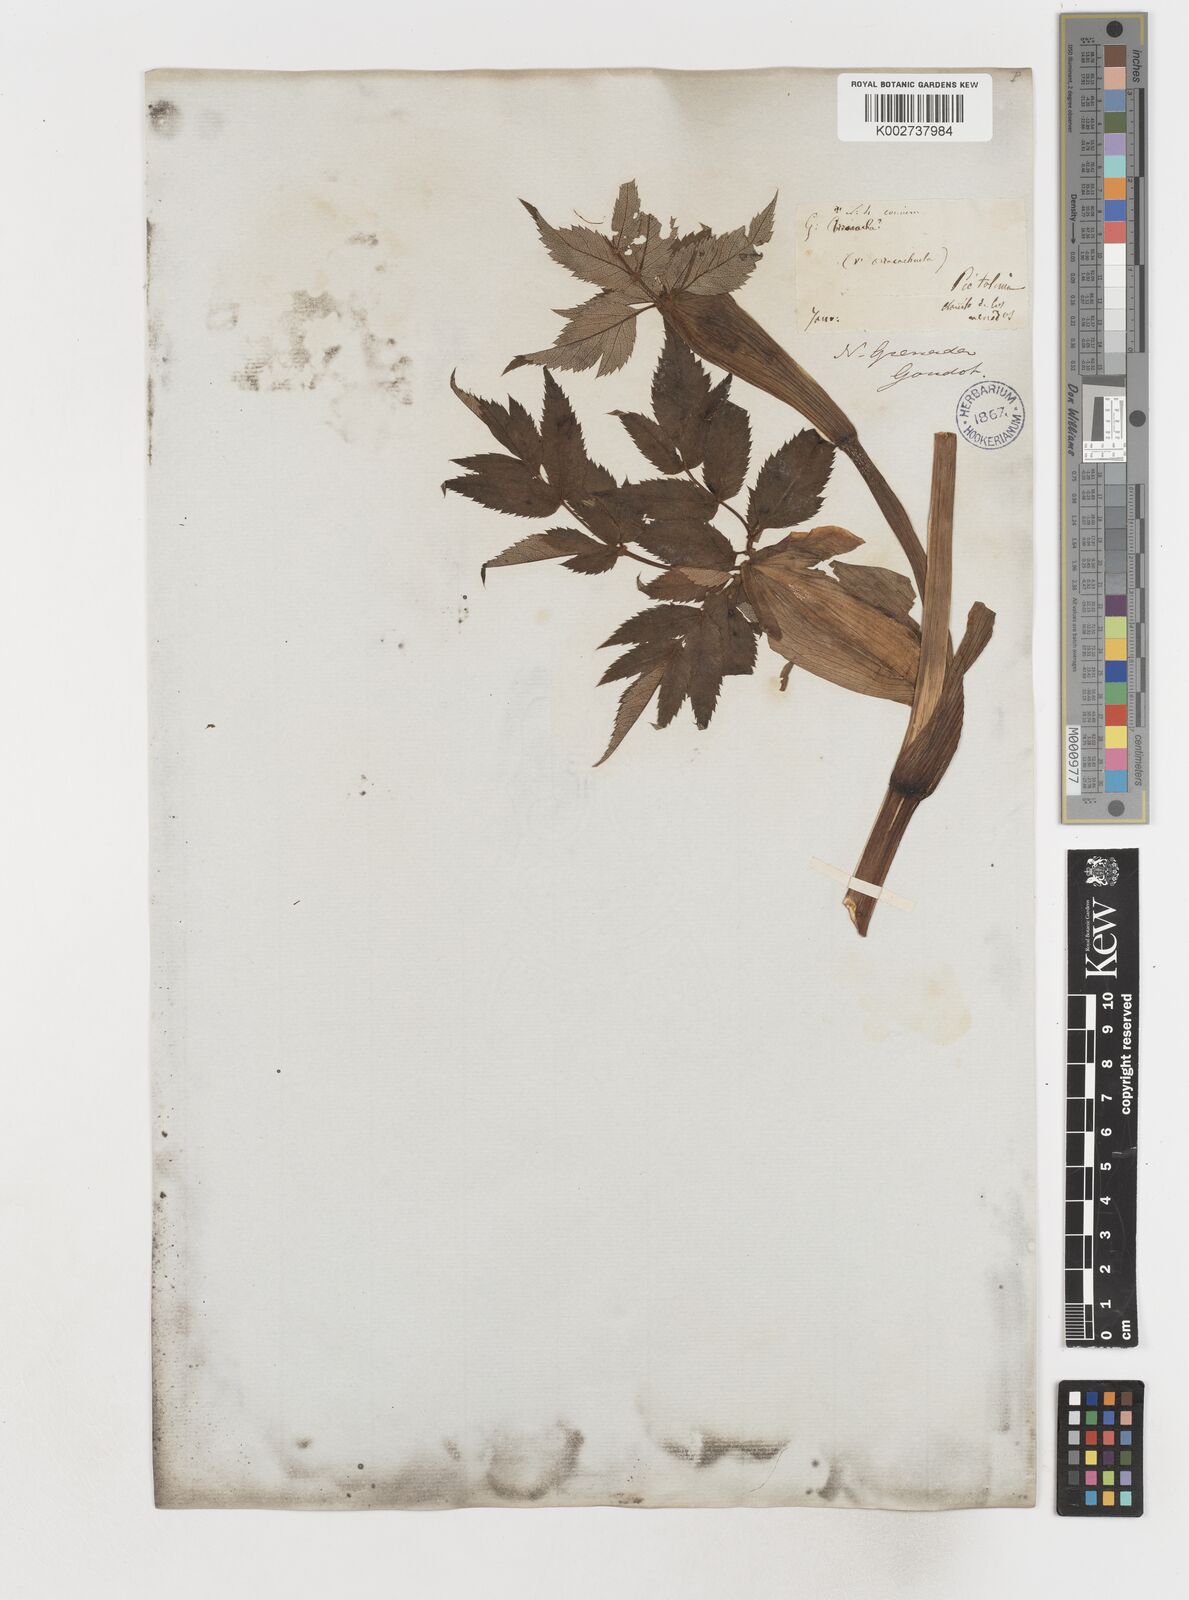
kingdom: Plantae
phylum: Tracheophyta
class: Magnoliopsida
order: Apiales
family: Apiaceae
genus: Myrrhidendron
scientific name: Myrrhidendron pennellii
